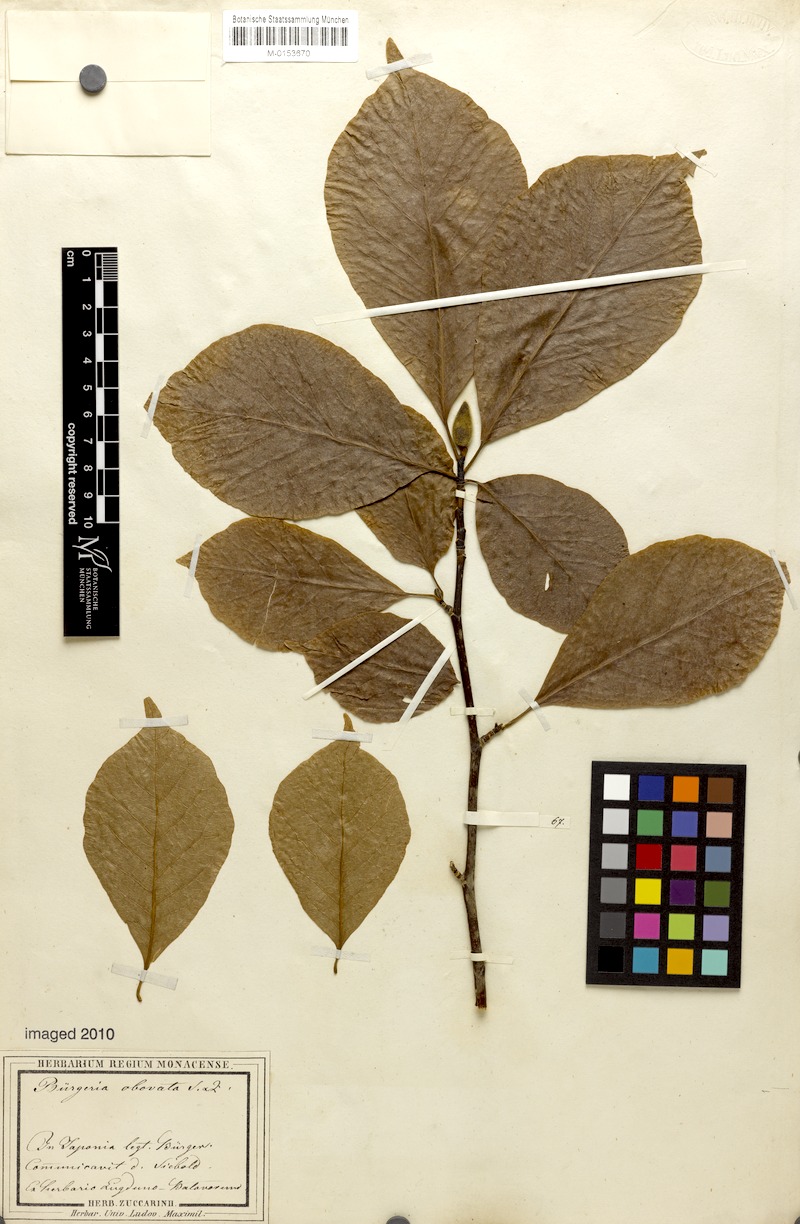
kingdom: Plantae
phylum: Tracheophyta
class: Magnoliopsida
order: Magnoliales
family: Magnoliaceae
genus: Magnolia
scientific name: Magnolia kobus
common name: Kobus magnolia
